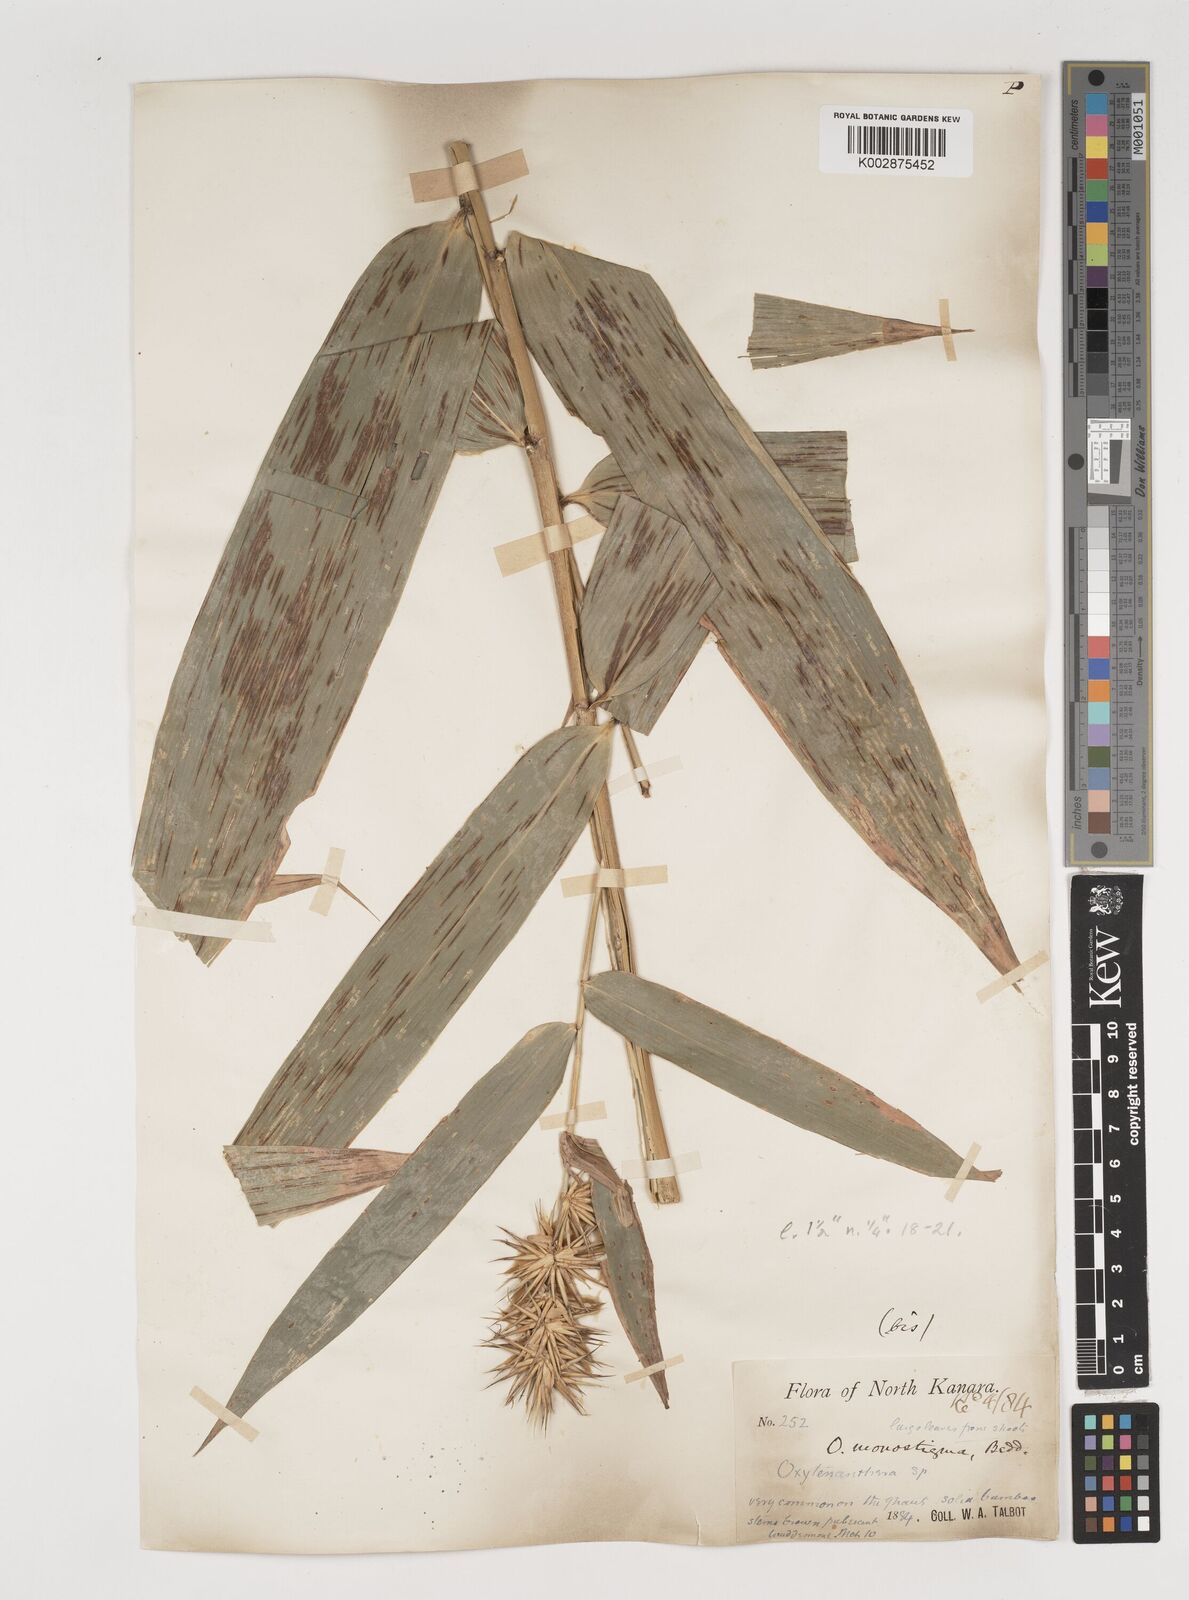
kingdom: Plantae
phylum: Tracheophyta
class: Liliopsida
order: Poales
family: Poaceae
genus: Pseudoxytenanthera
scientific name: Pseudoxytenanthera monadelpha
